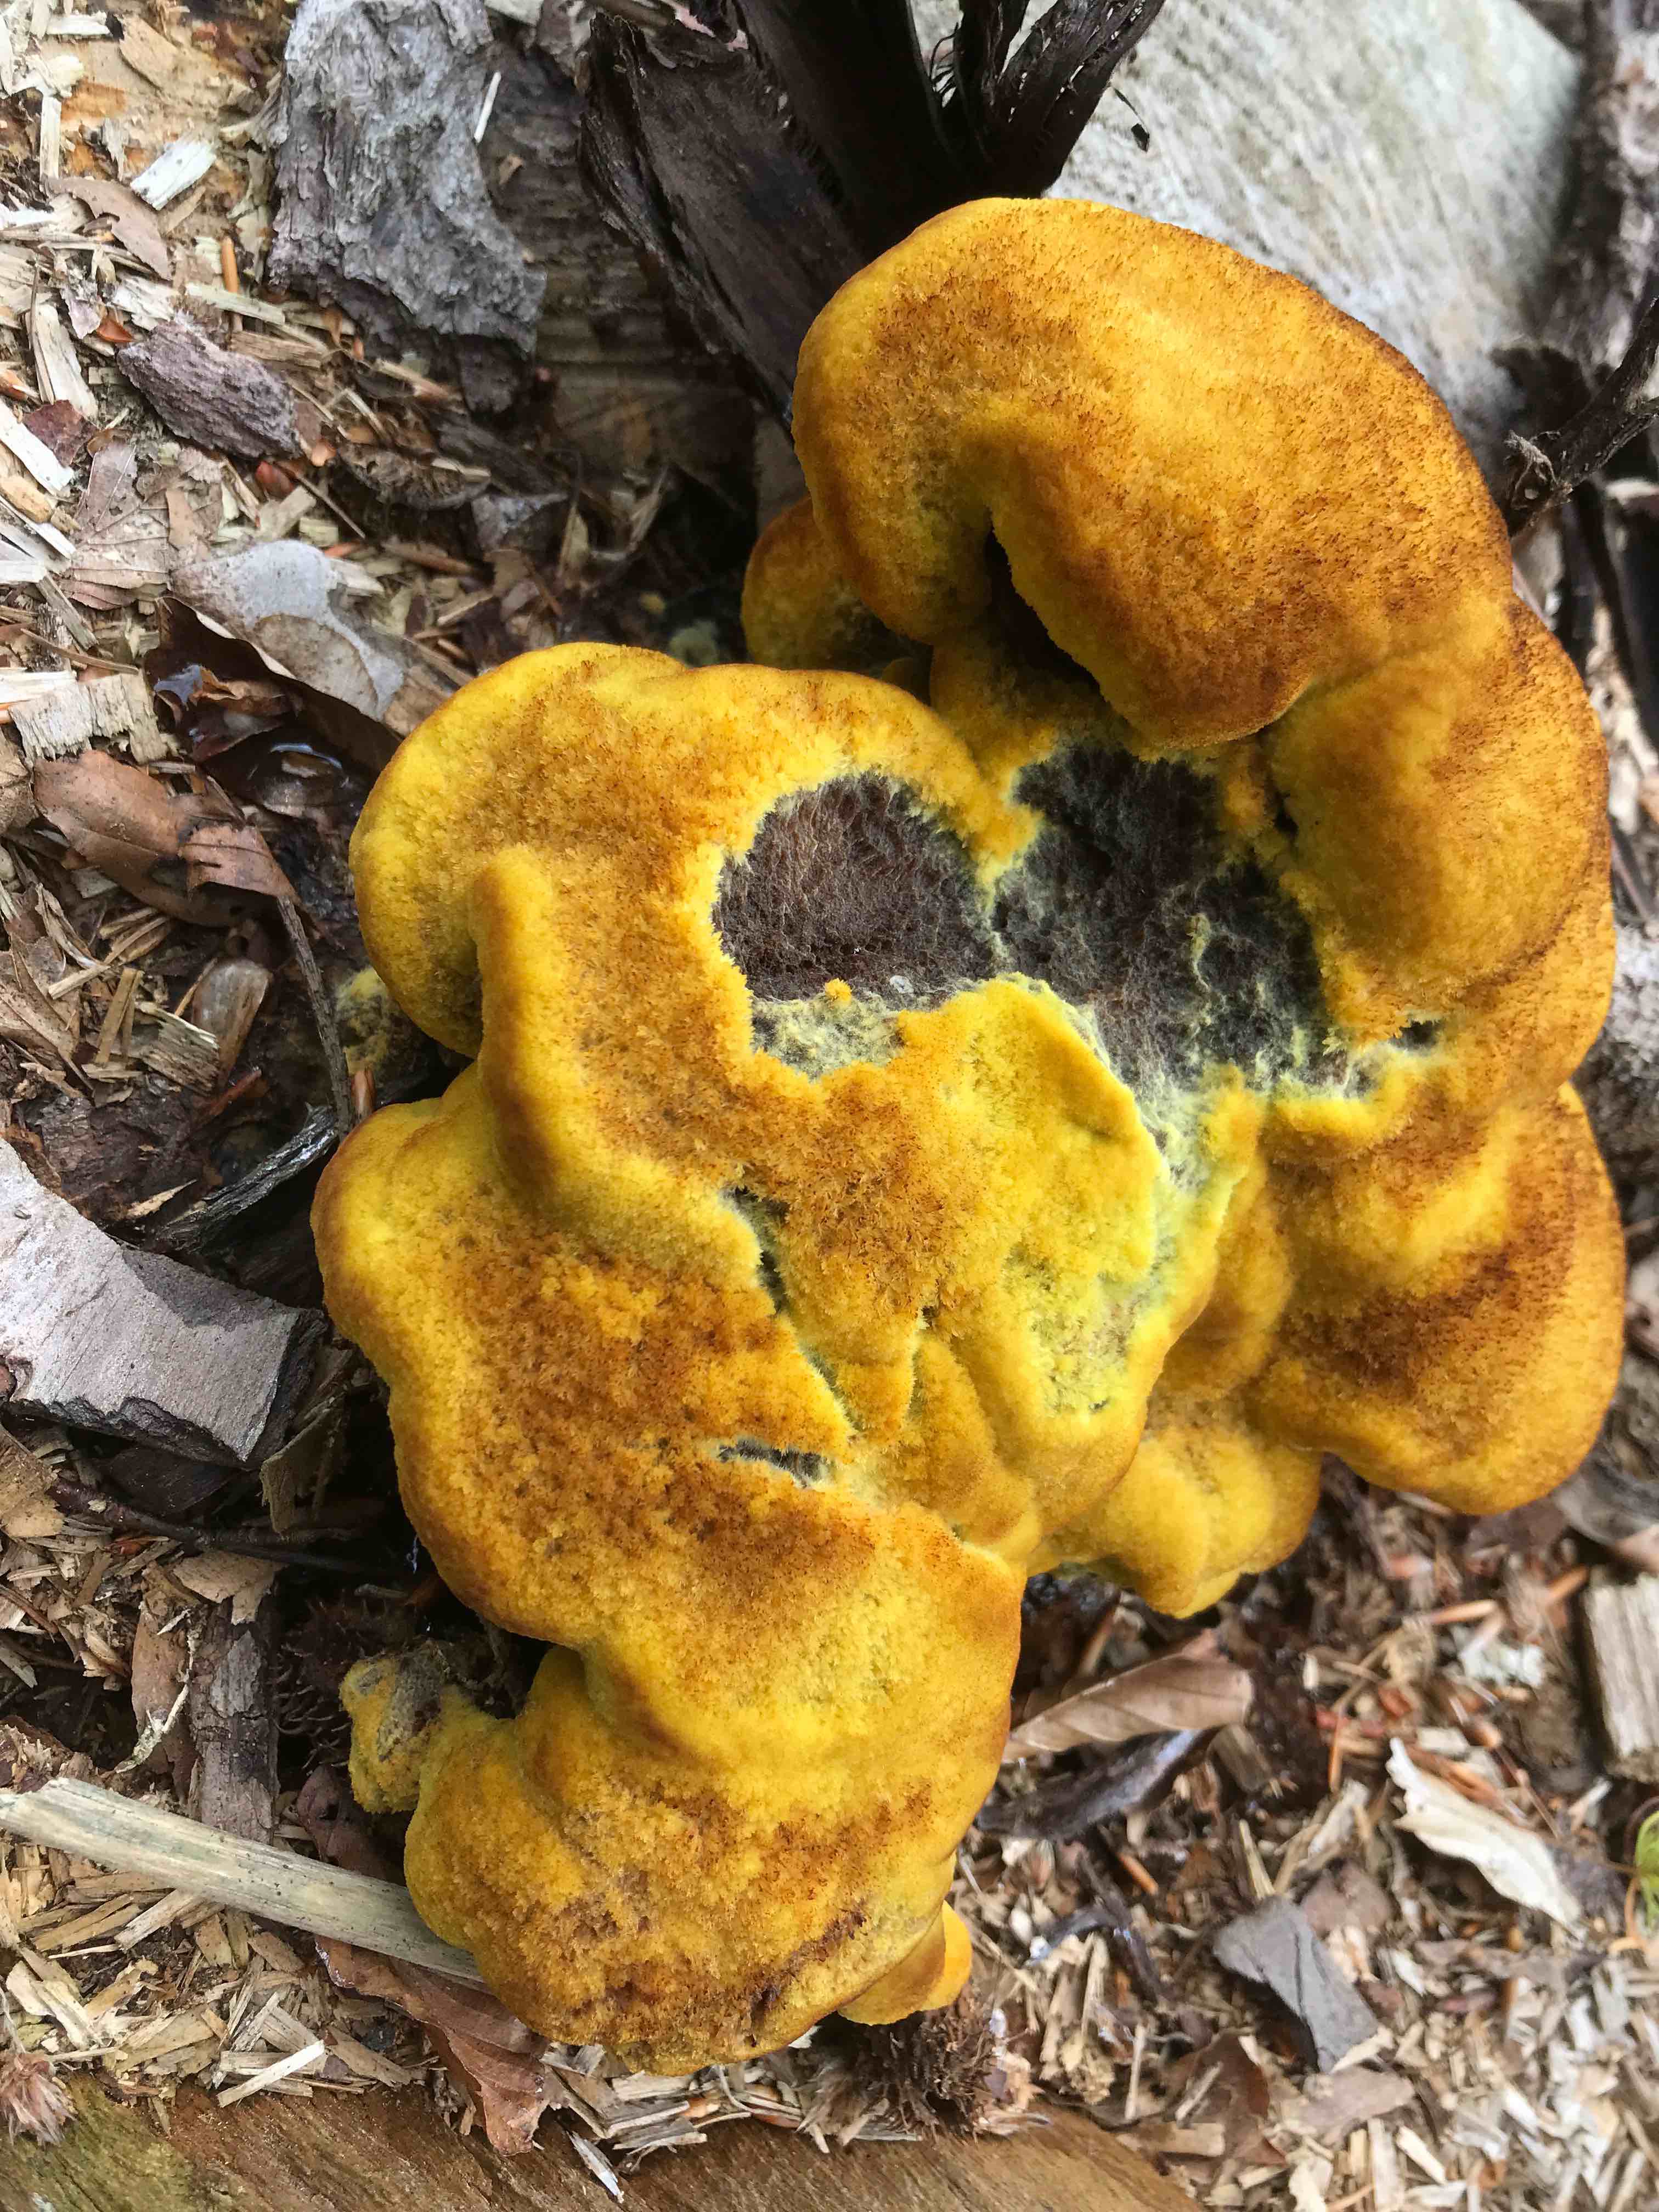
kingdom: Fungi
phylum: Basidiomycota
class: Agaricomycetes
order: Polyporales
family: Laetiporaceae
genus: Phaeolus
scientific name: Phaeolus schweinitzii
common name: brunporesvamp
